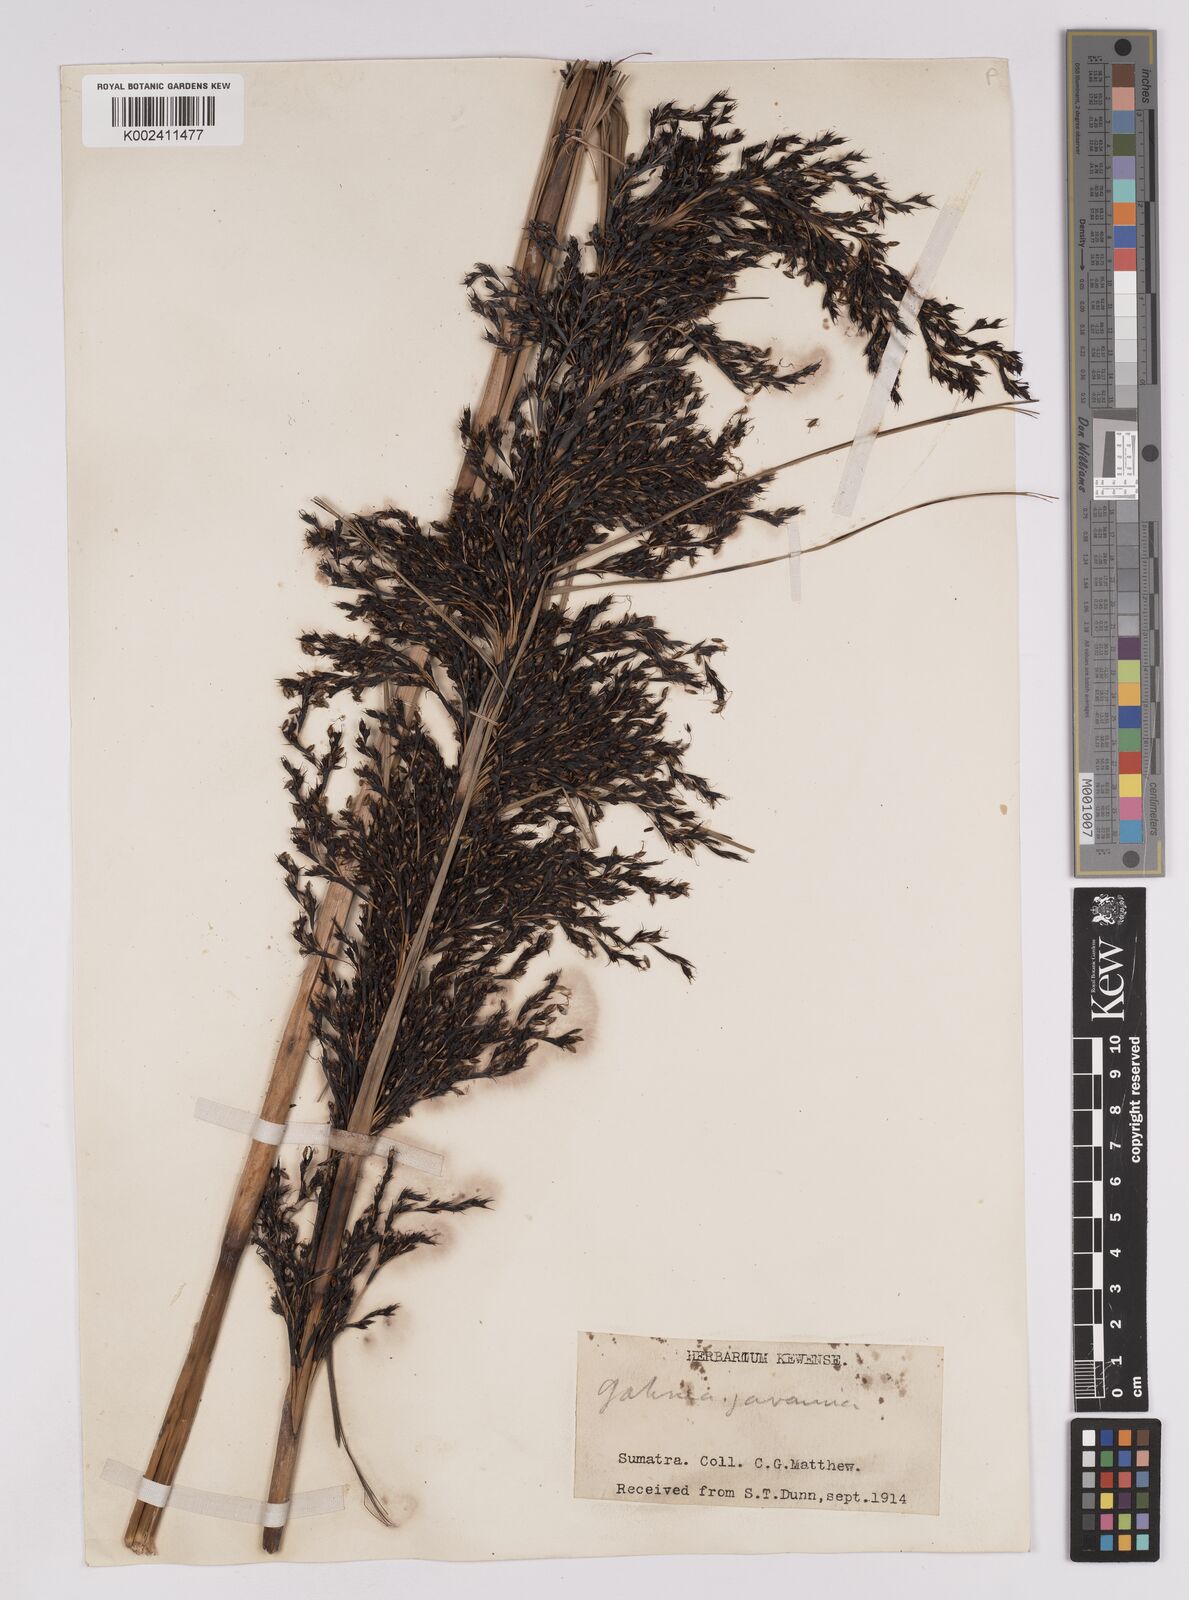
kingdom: Plantae
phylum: Tracheophyta
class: Liliopsida
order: Poales
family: Cyperaceae
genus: Gahnia
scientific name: Gahnia javanica
